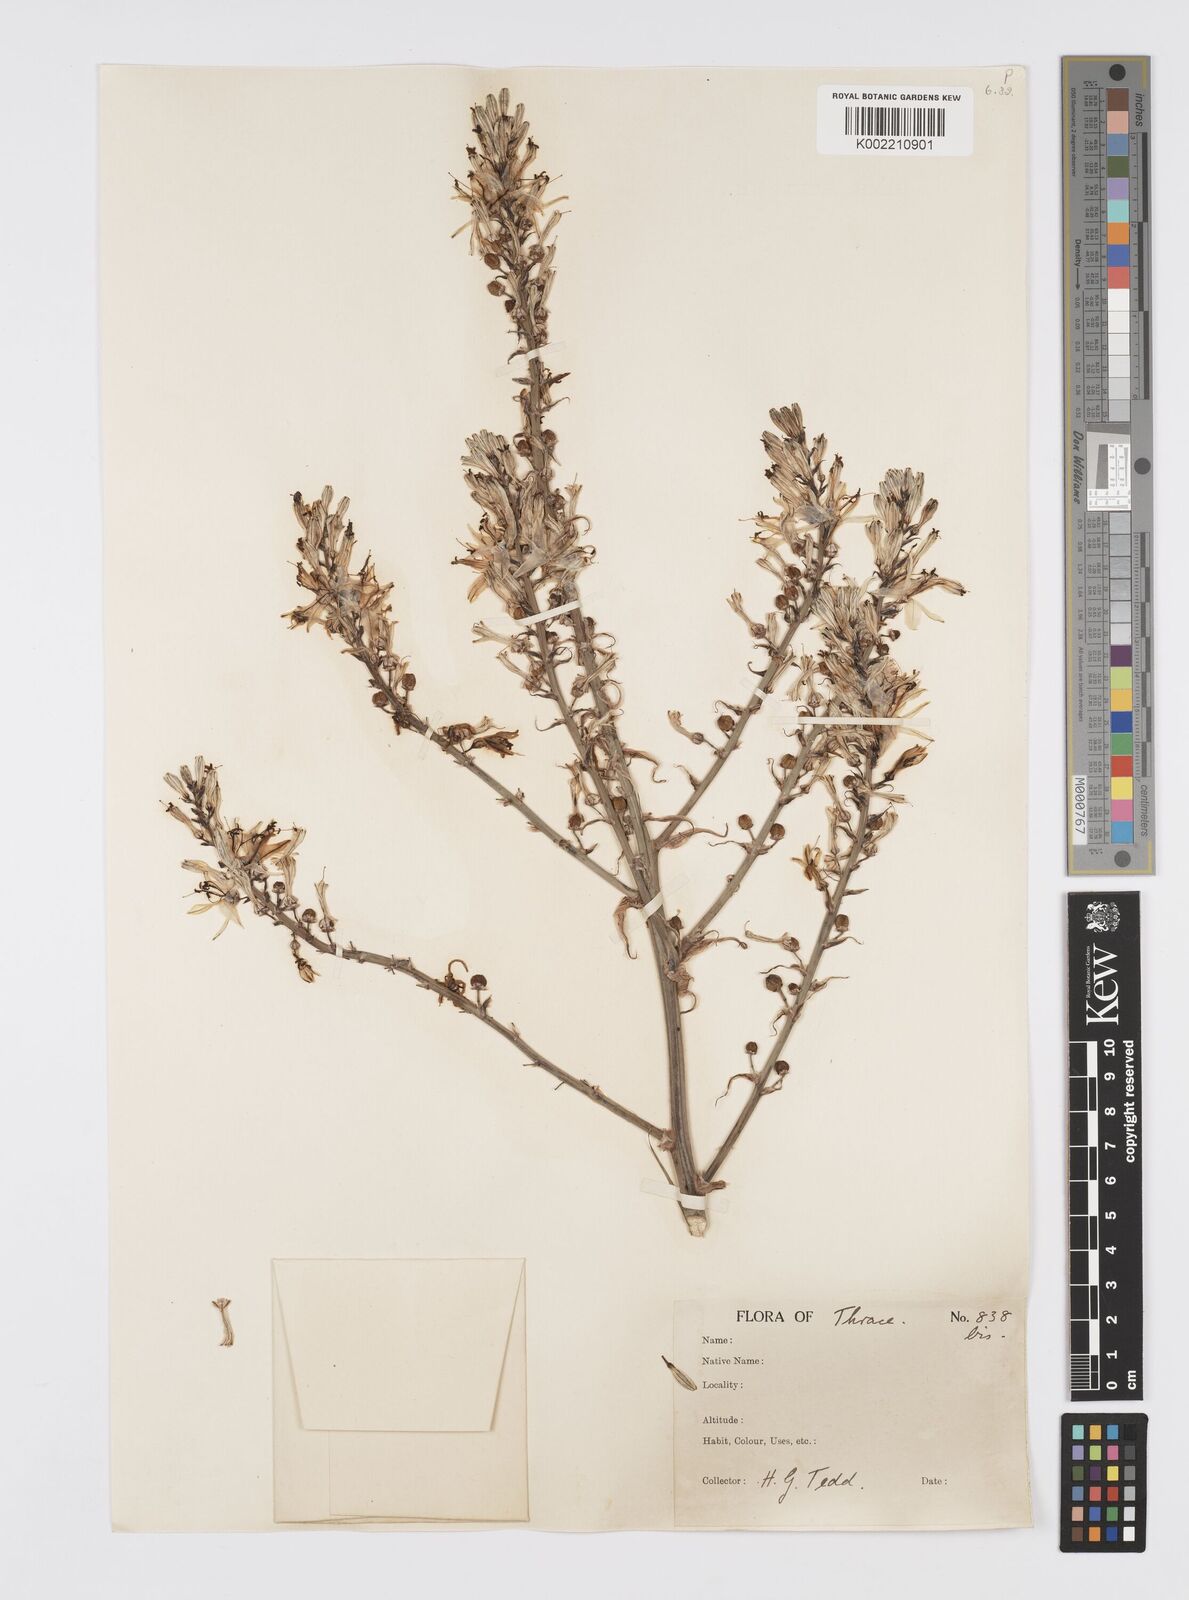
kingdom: Plantae
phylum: Tracheophyta
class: Liliopsida
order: Asparagales
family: Asphodelaceae
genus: Asphodelus
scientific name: Asphodelus ramosus
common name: Silverrod
